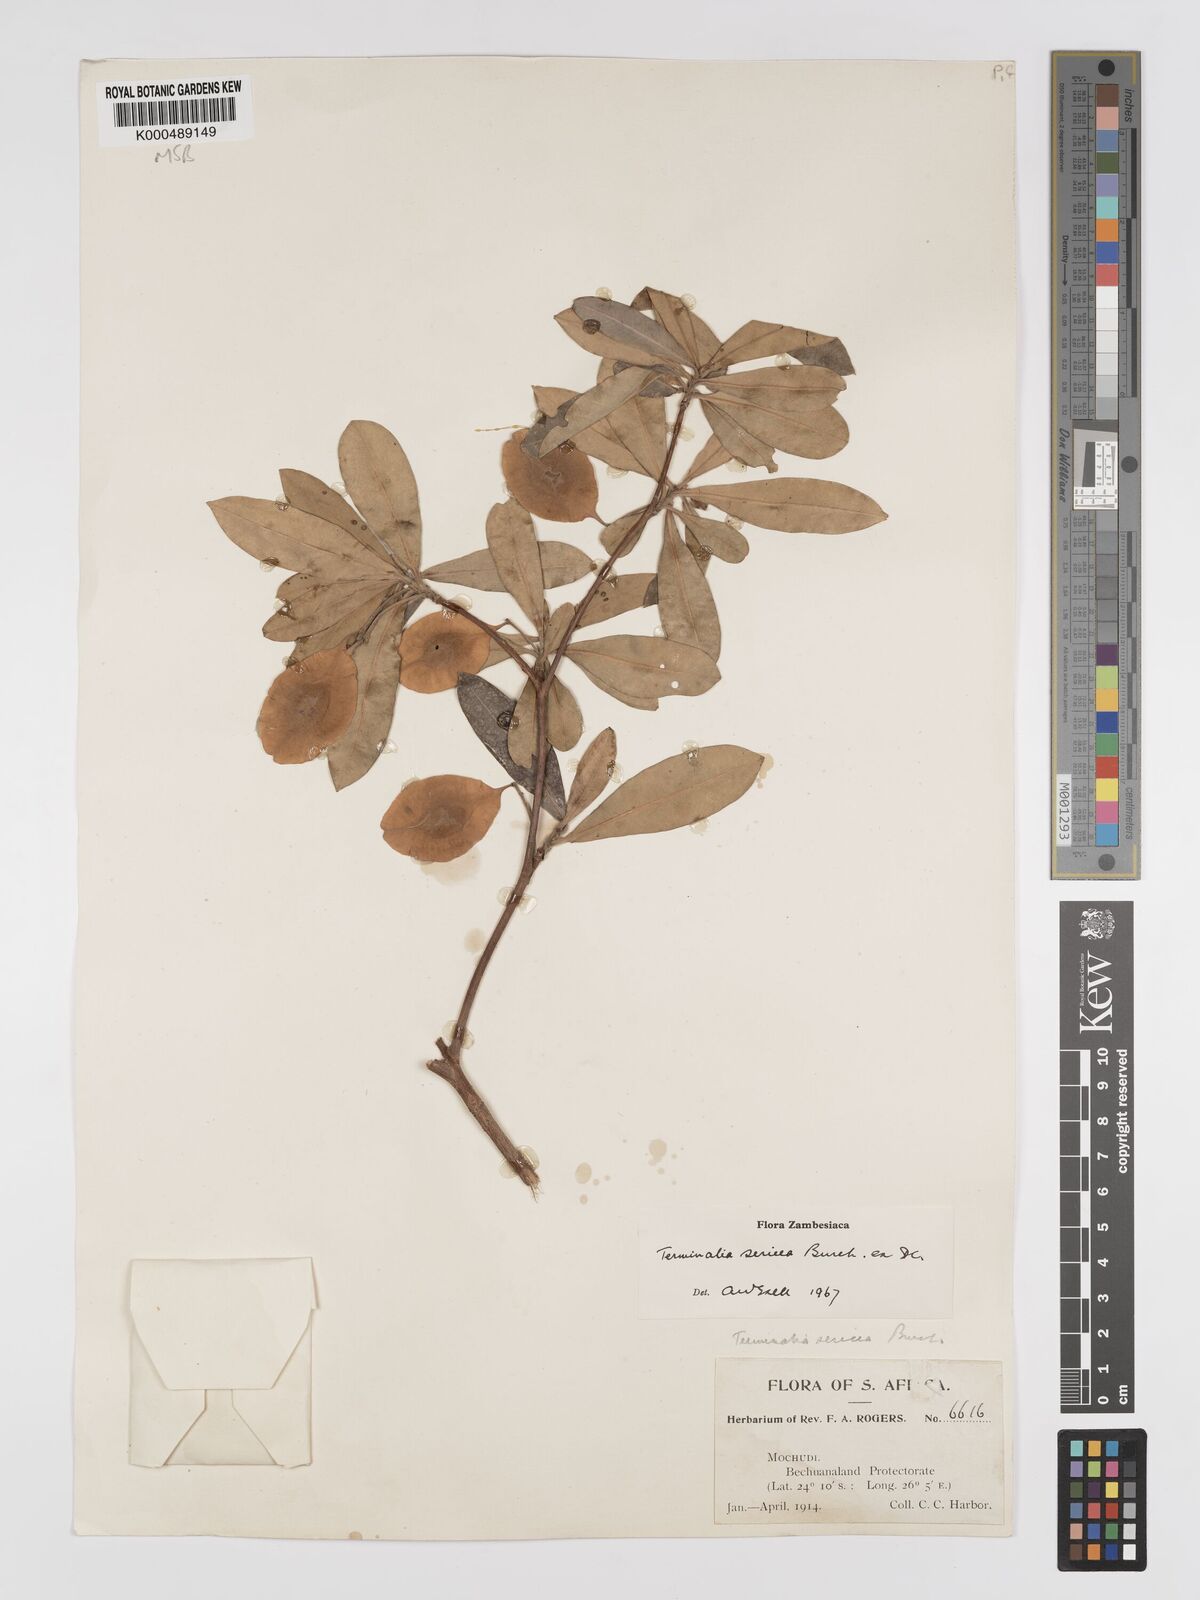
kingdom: Plantae
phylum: Tracheophyta
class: Magnoliopsida
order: Myrtales
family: Combretaceae
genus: Terminalia
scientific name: Terminalia sericea
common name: Clusterleaf
